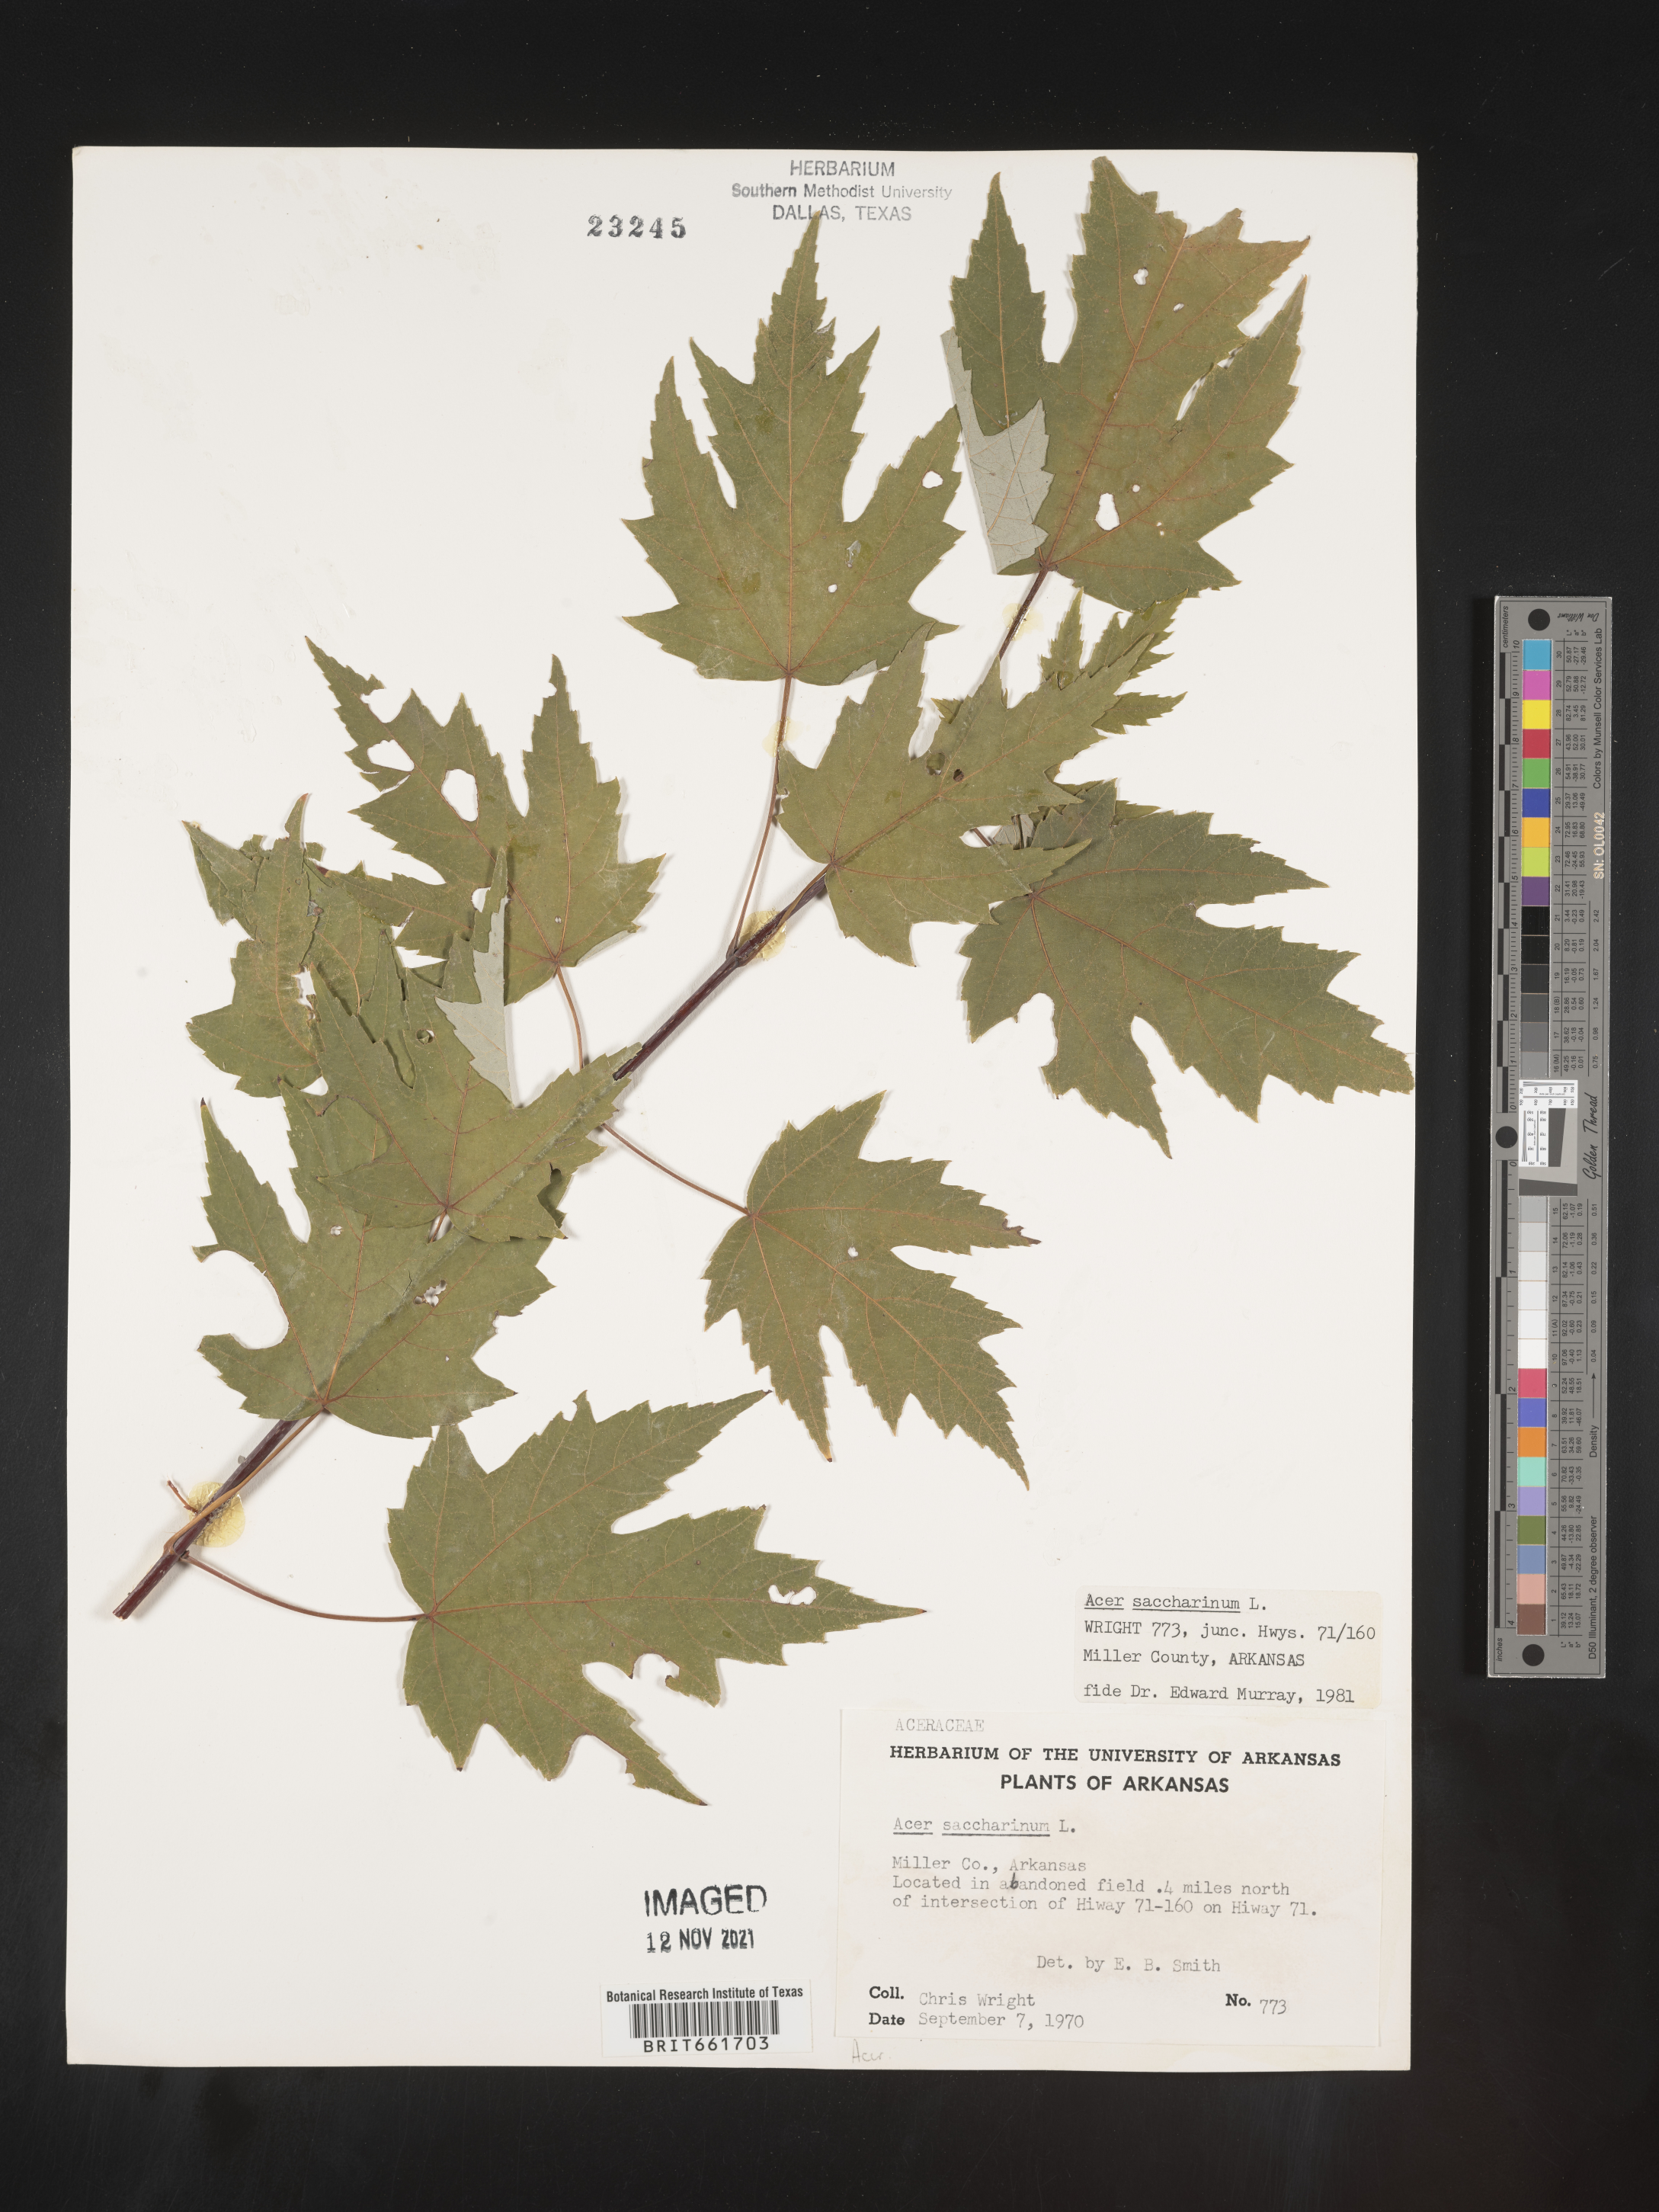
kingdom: Plantae
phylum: Tracheophyta
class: Magnoliopsida
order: Sapindales
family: Sapindaceae
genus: Acer
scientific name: Acer saccharum
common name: Sugar maple
